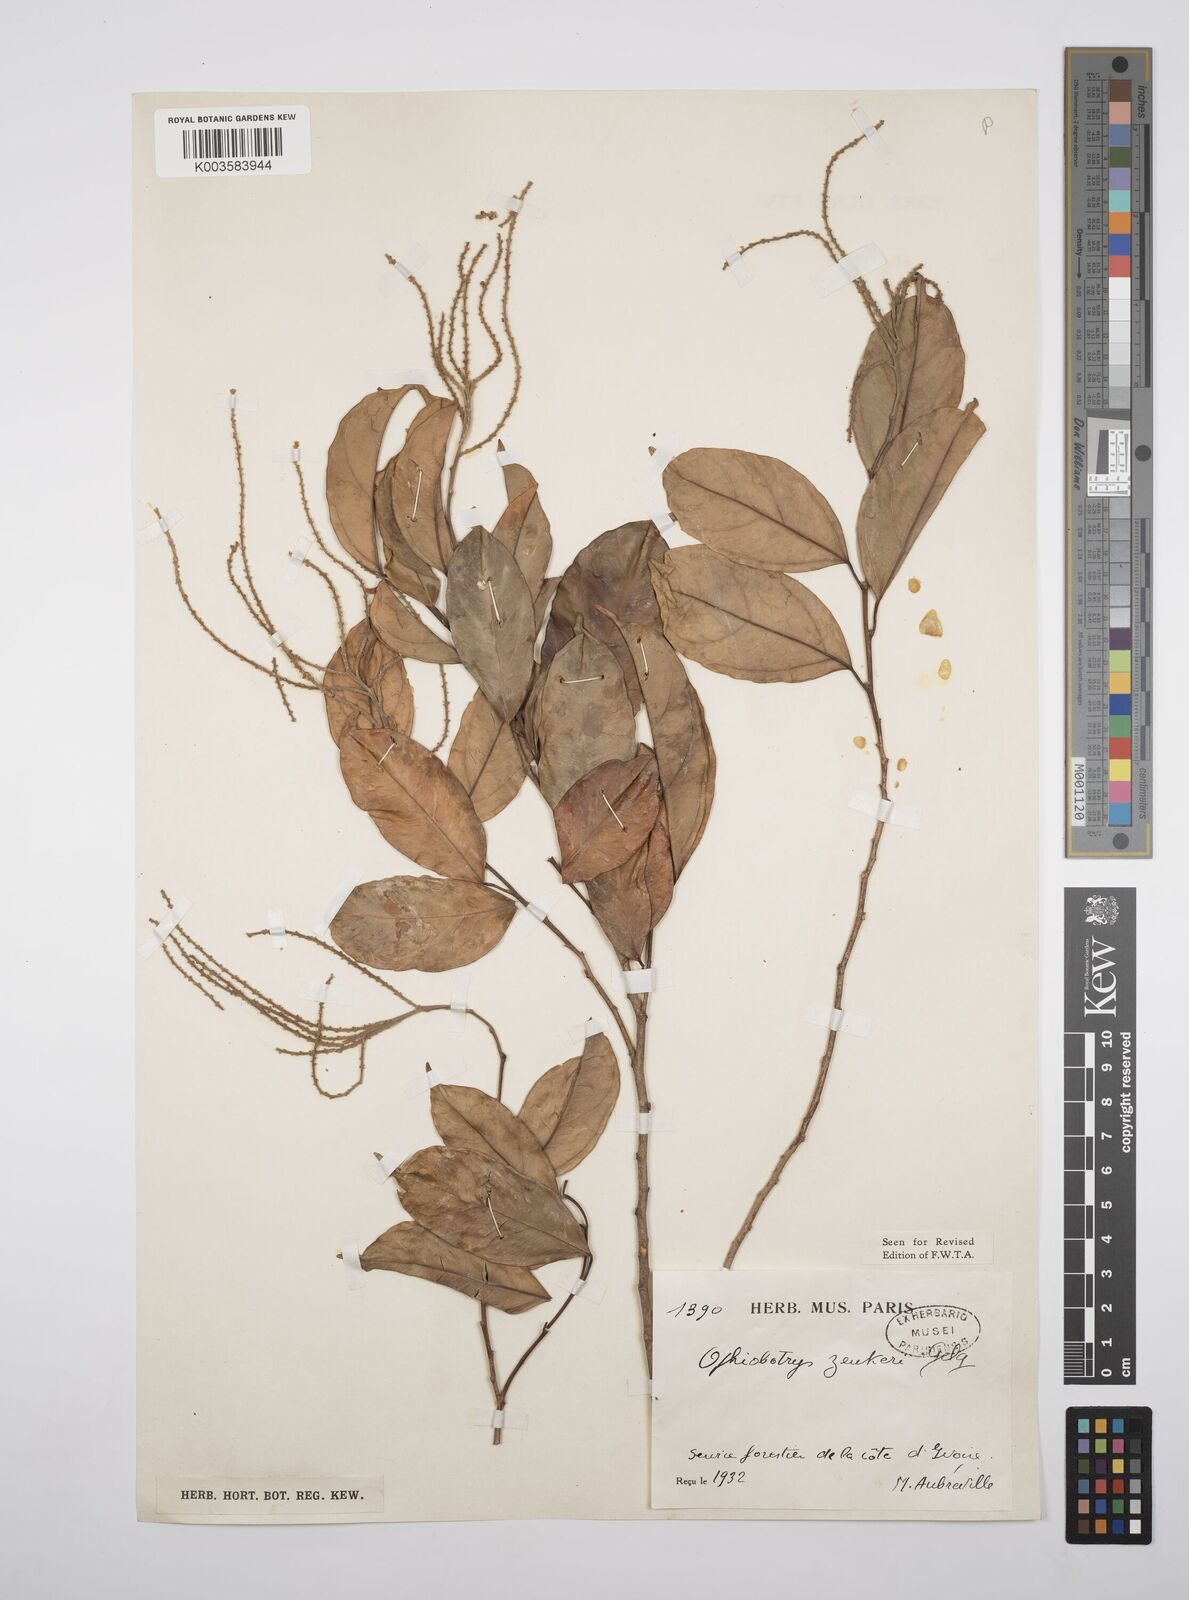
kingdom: Plantae
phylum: Tracheophyta
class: Magnoliopsida
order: Malpighiales
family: Salicaceae
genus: Ophiobotrys
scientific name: Ophiobotrys zenkeri
